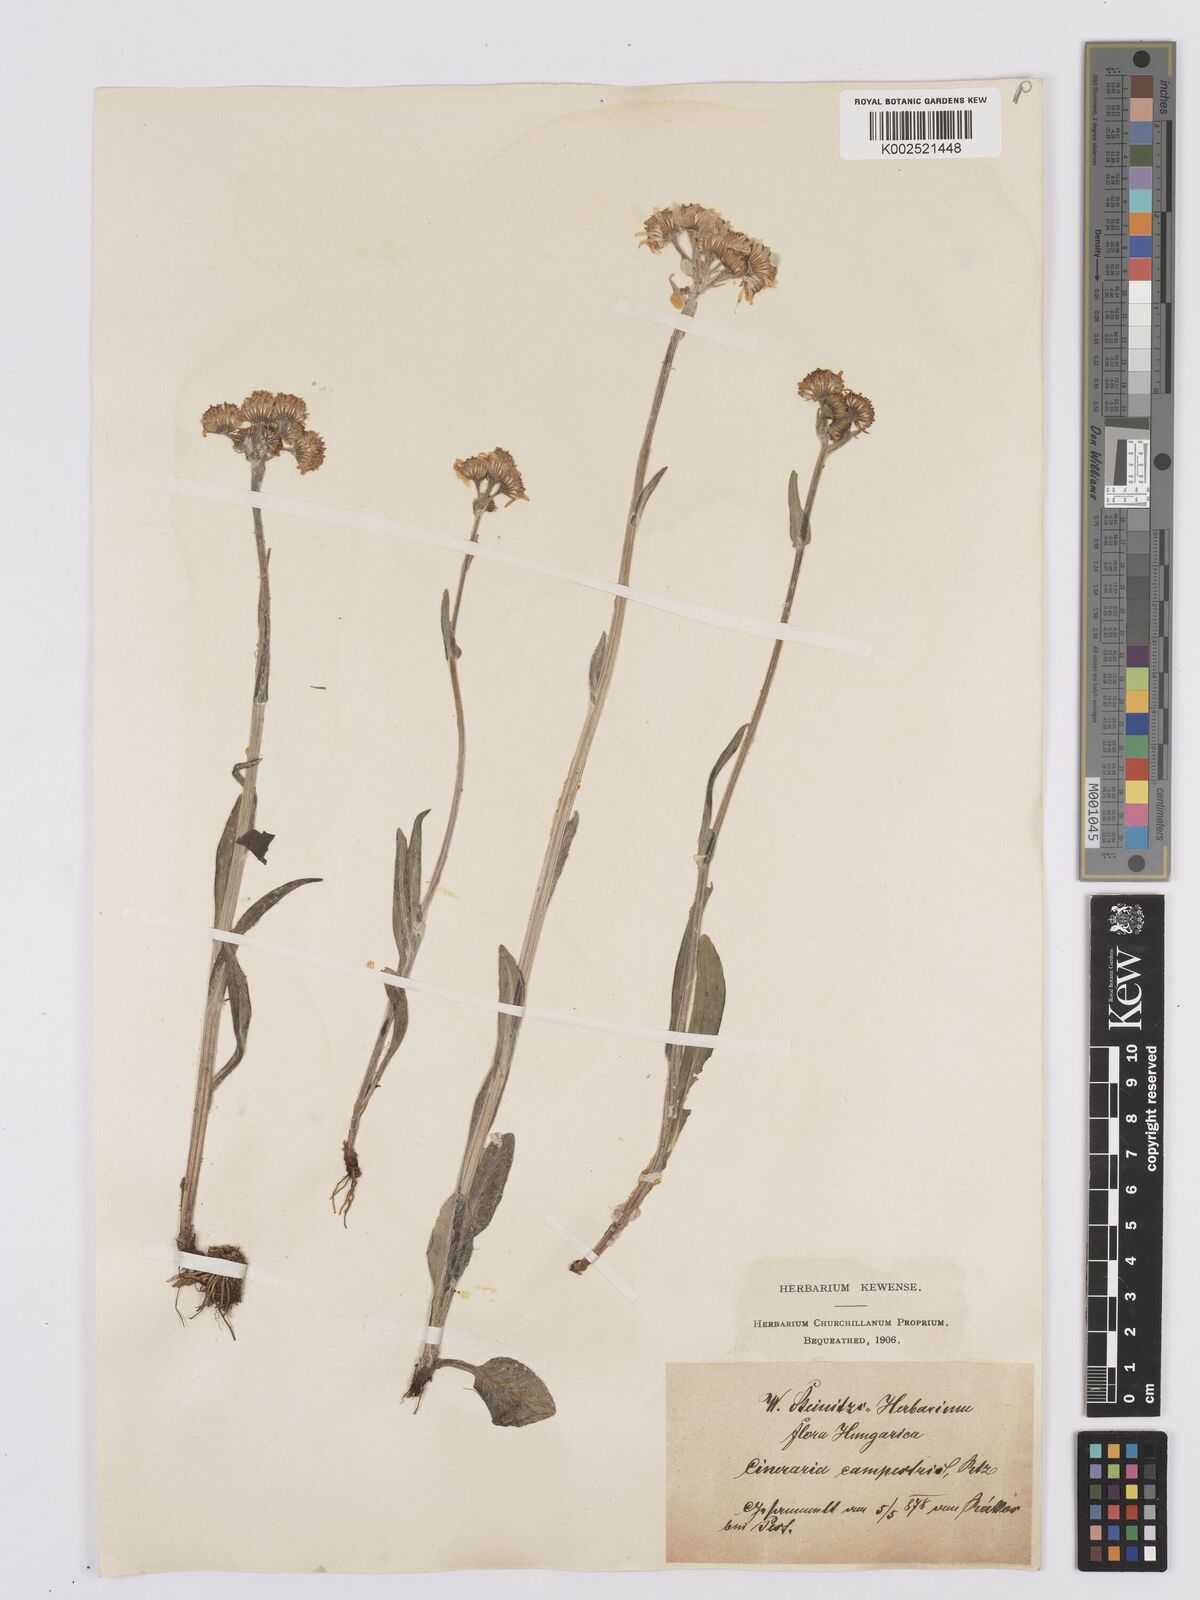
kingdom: Plantae
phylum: Tracheophyta
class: Magnoliopsida
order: Asterales
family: Asteraceae
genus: Tephroseris
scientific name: Tephroseris integrifolia
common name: Field fleawort
